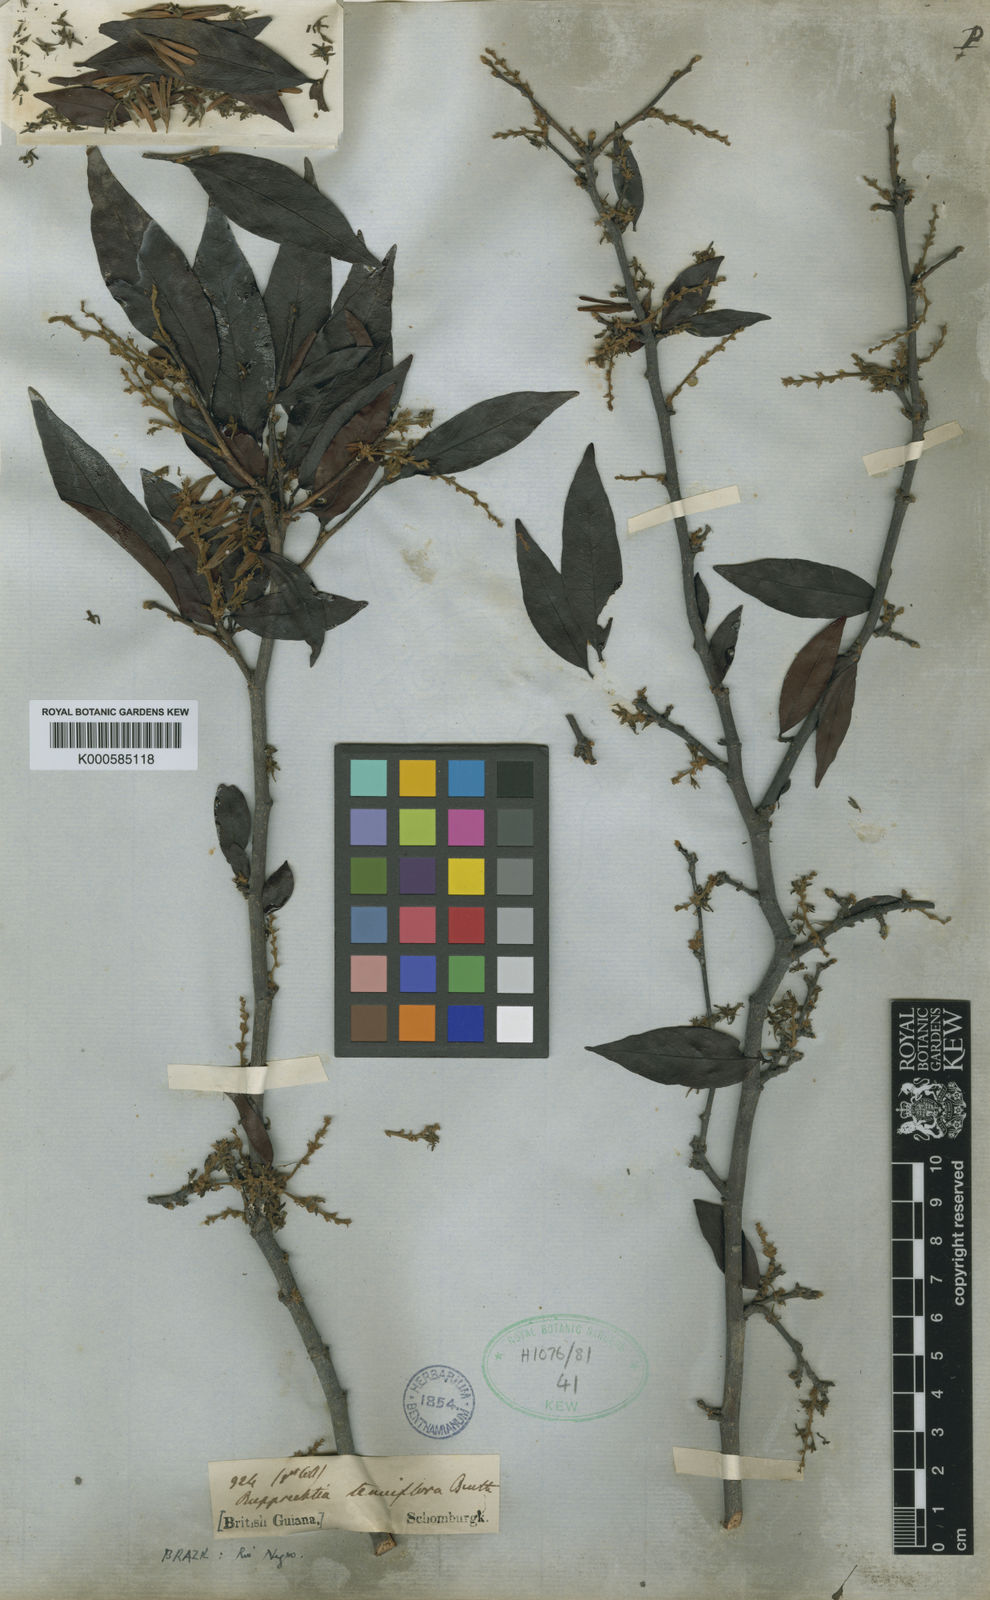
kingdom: Plantae
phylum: Tracheophyta
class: Magnoliopsida
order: Caryophyllales
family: Polygonaceae
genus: Ruprechtia
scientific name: Ruprechtia tenuiflora
